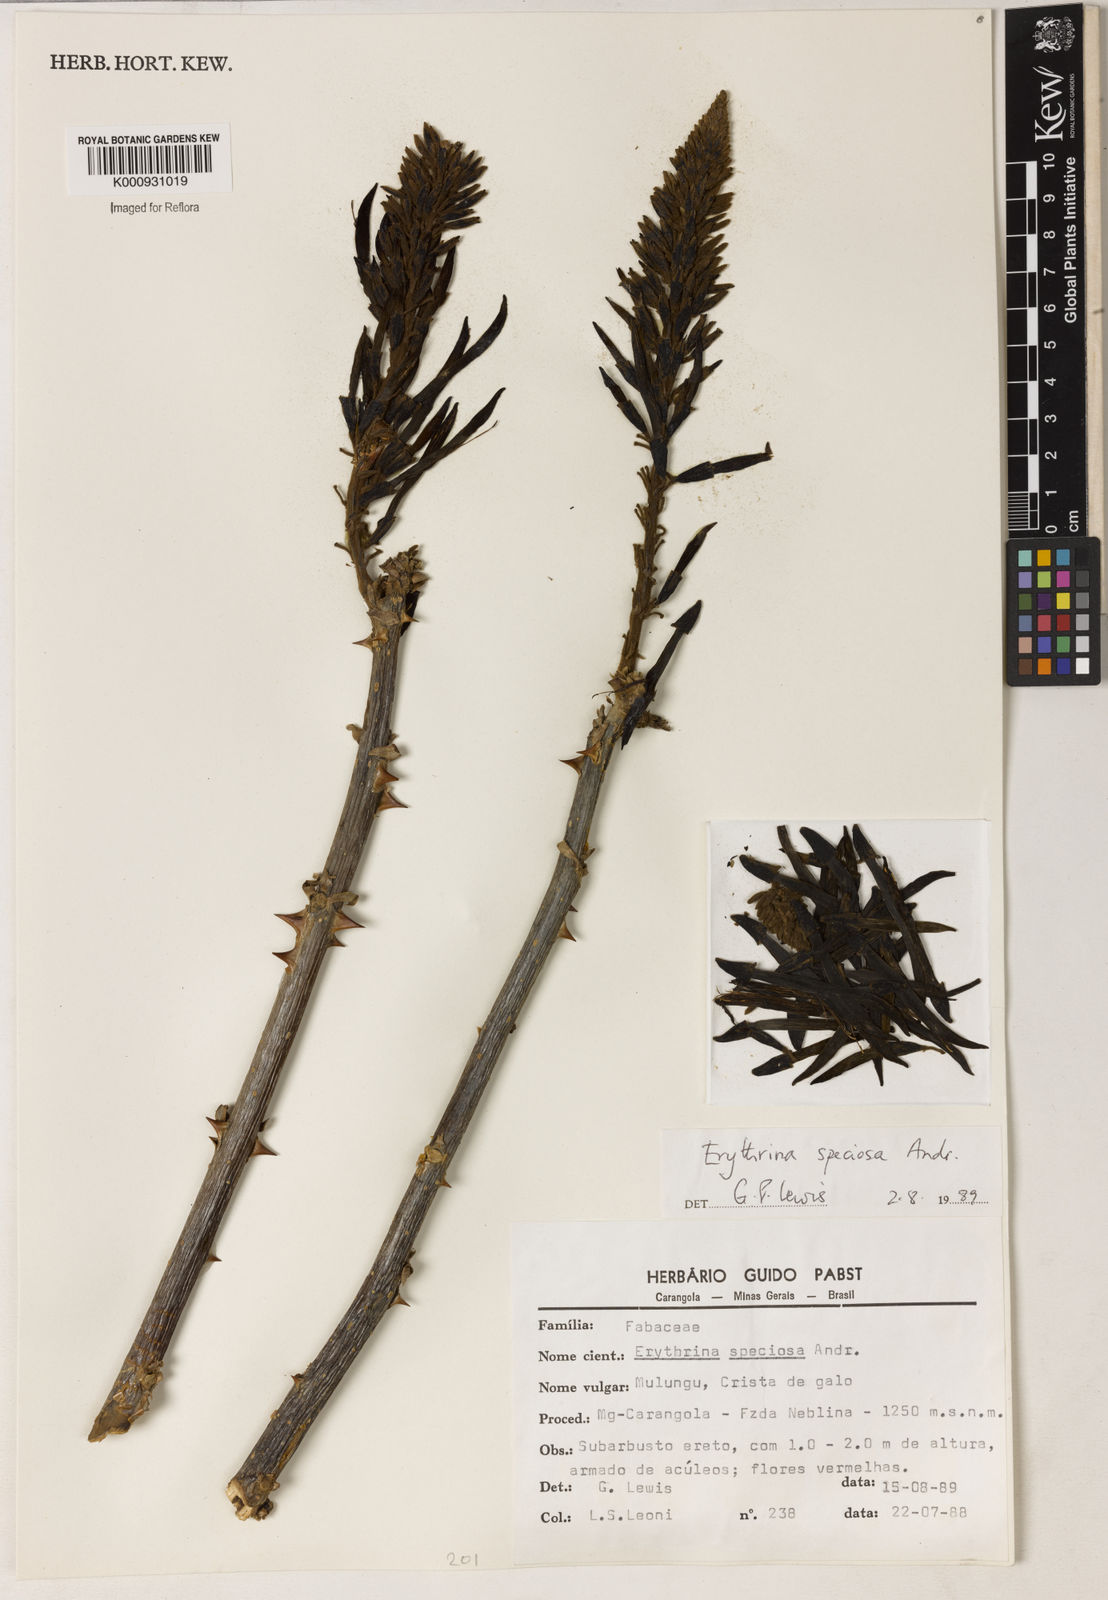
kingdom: Plantae
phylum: Tracheophyta
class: Magnoliopsida
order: Fabales
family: Fabaceae
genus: Erythrina
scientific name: Erythrina speciosa
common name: Coral tree
